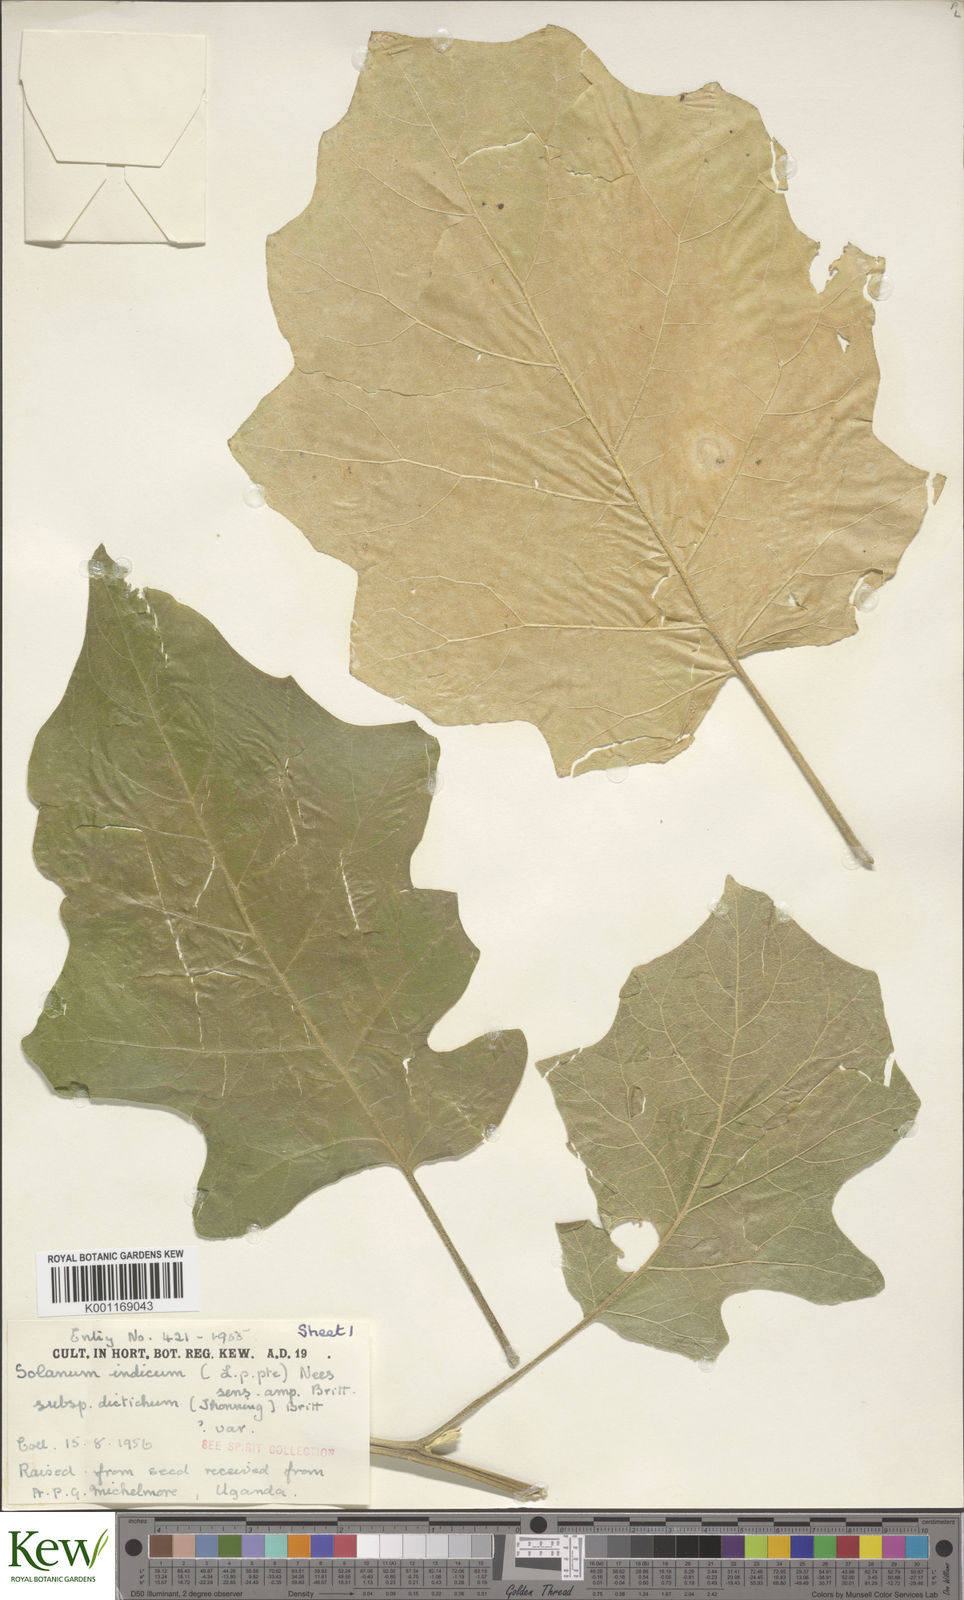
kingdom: Plantae
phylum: Tracheophyta
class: Magnoliopsida
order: Solanales
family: Solanaceae
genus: Solanum
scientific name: Solanum violaceum
